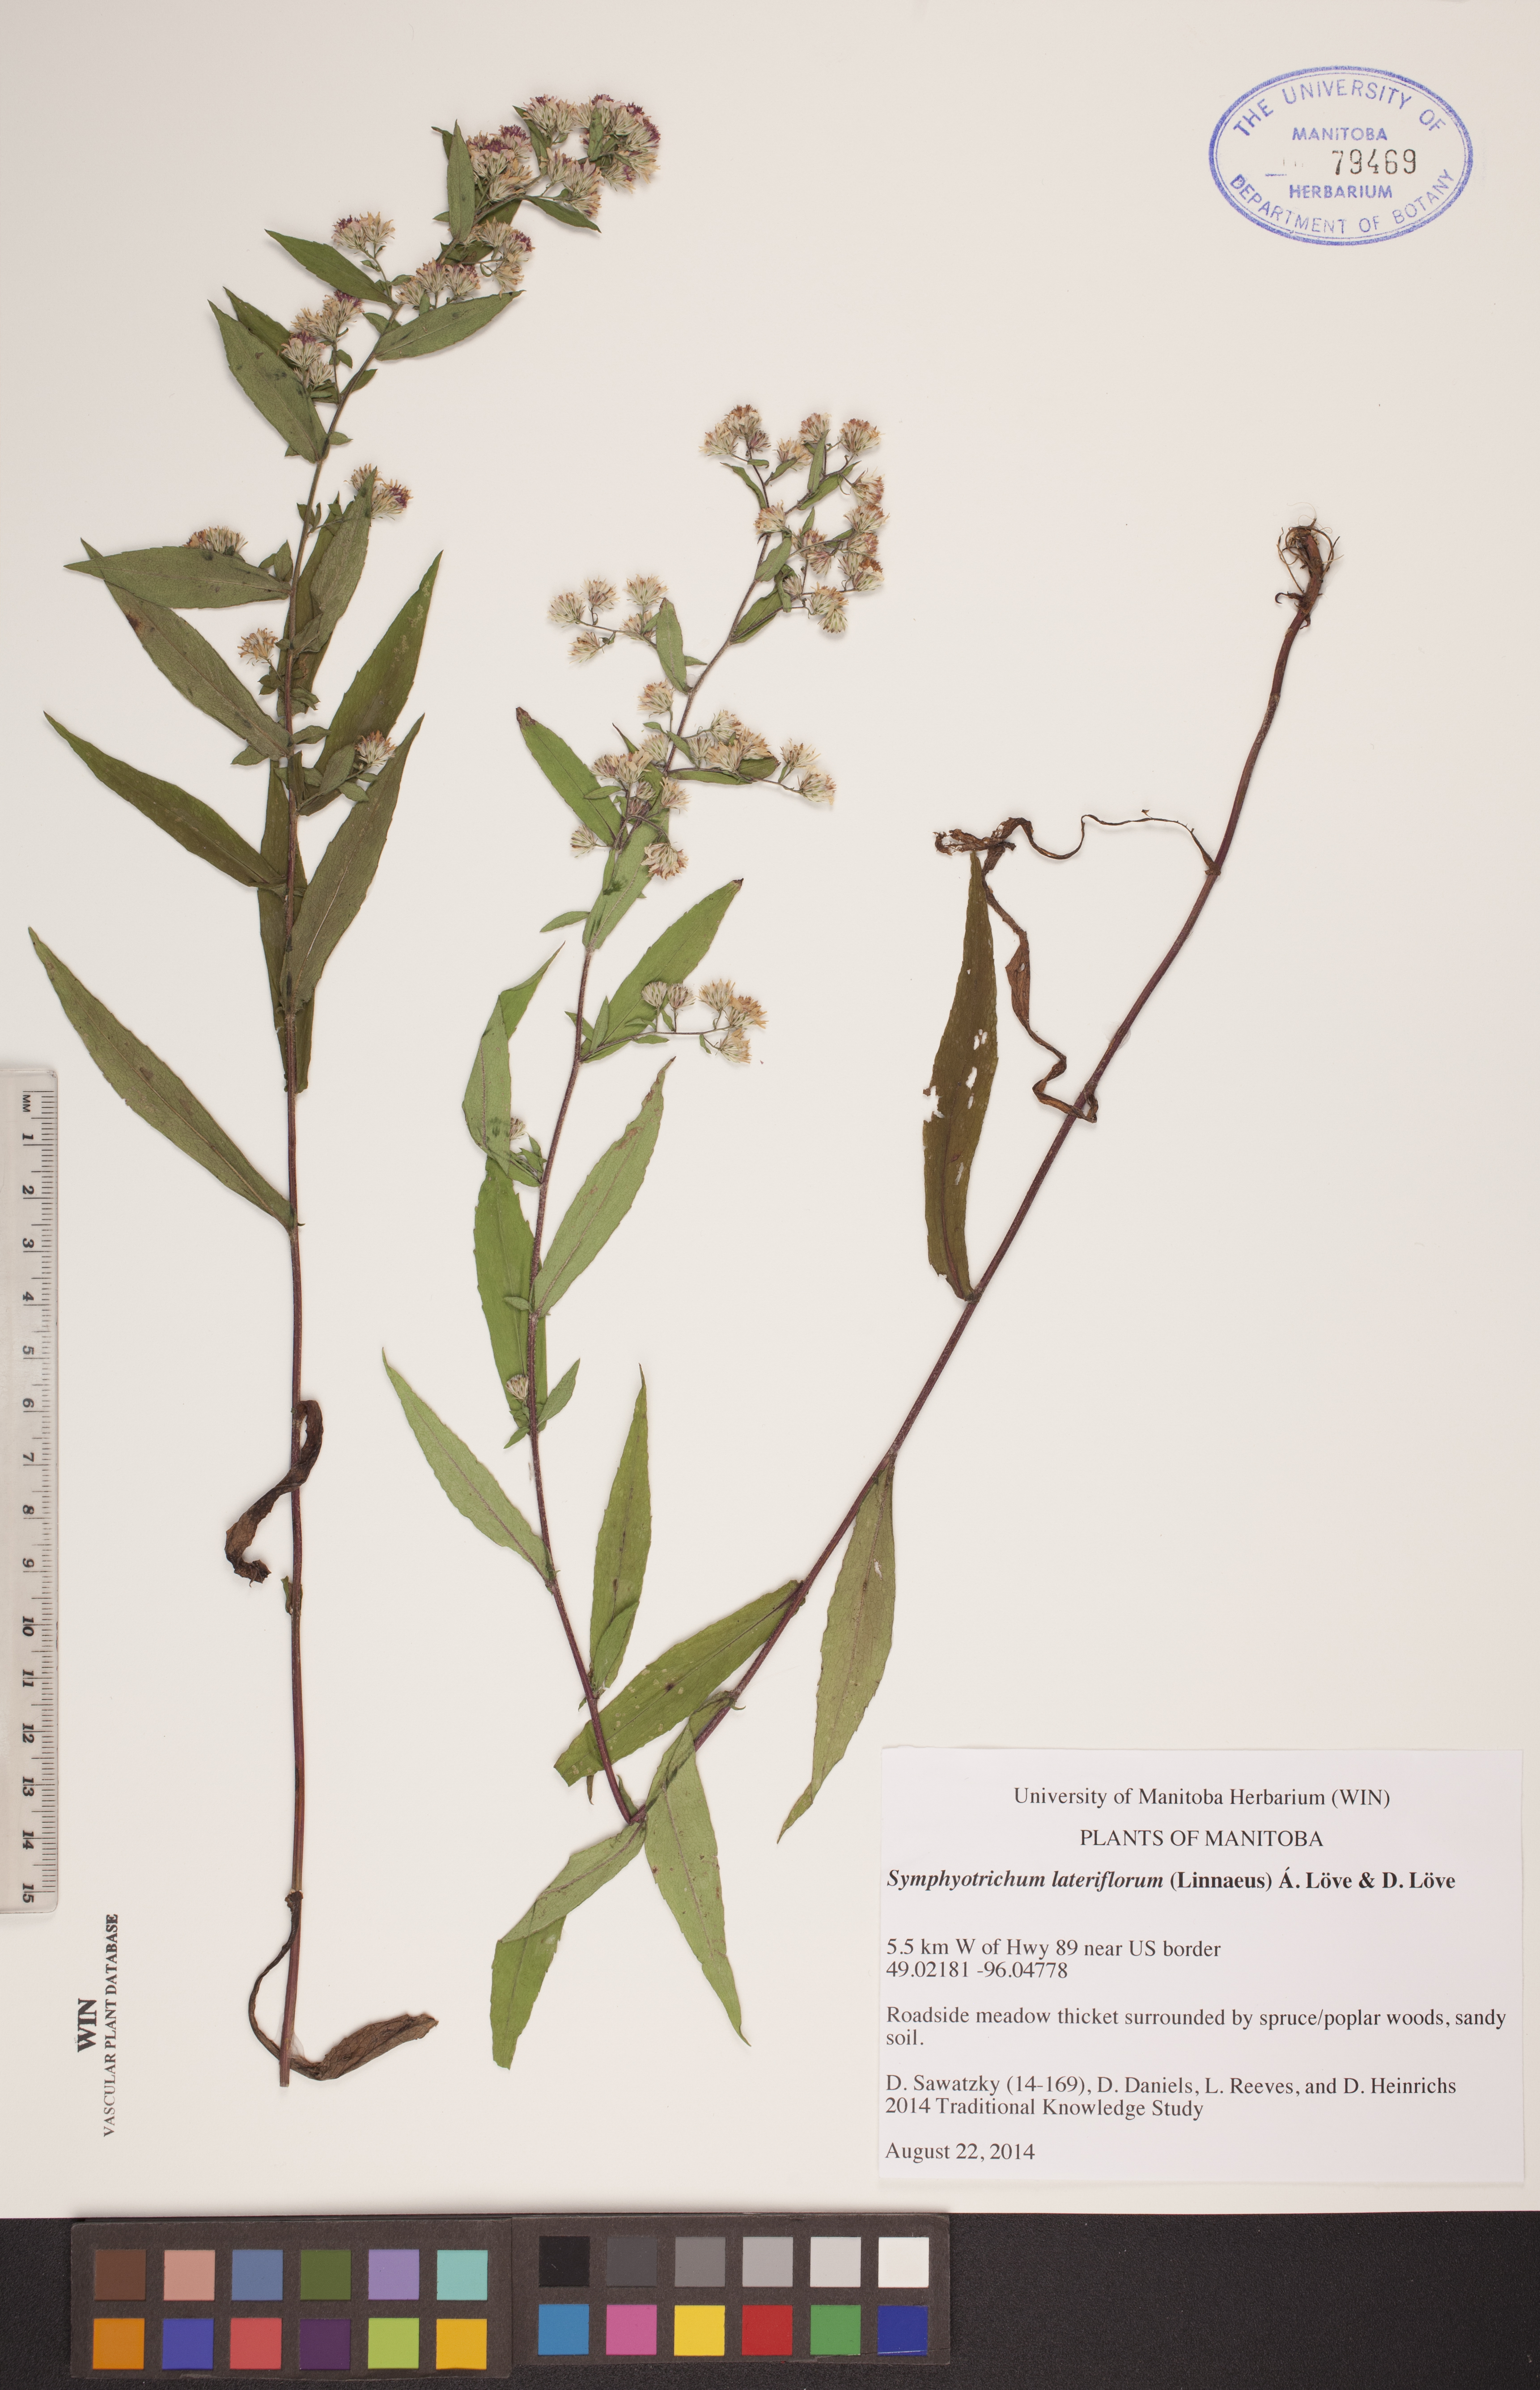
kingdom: Plantae
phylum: Tracheophyta
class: Magnoliopsida
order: Asterales
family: Asteraceae
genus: Symphyotrichum
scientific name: Symphyotrichum lateriflorum
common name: Calico aster
